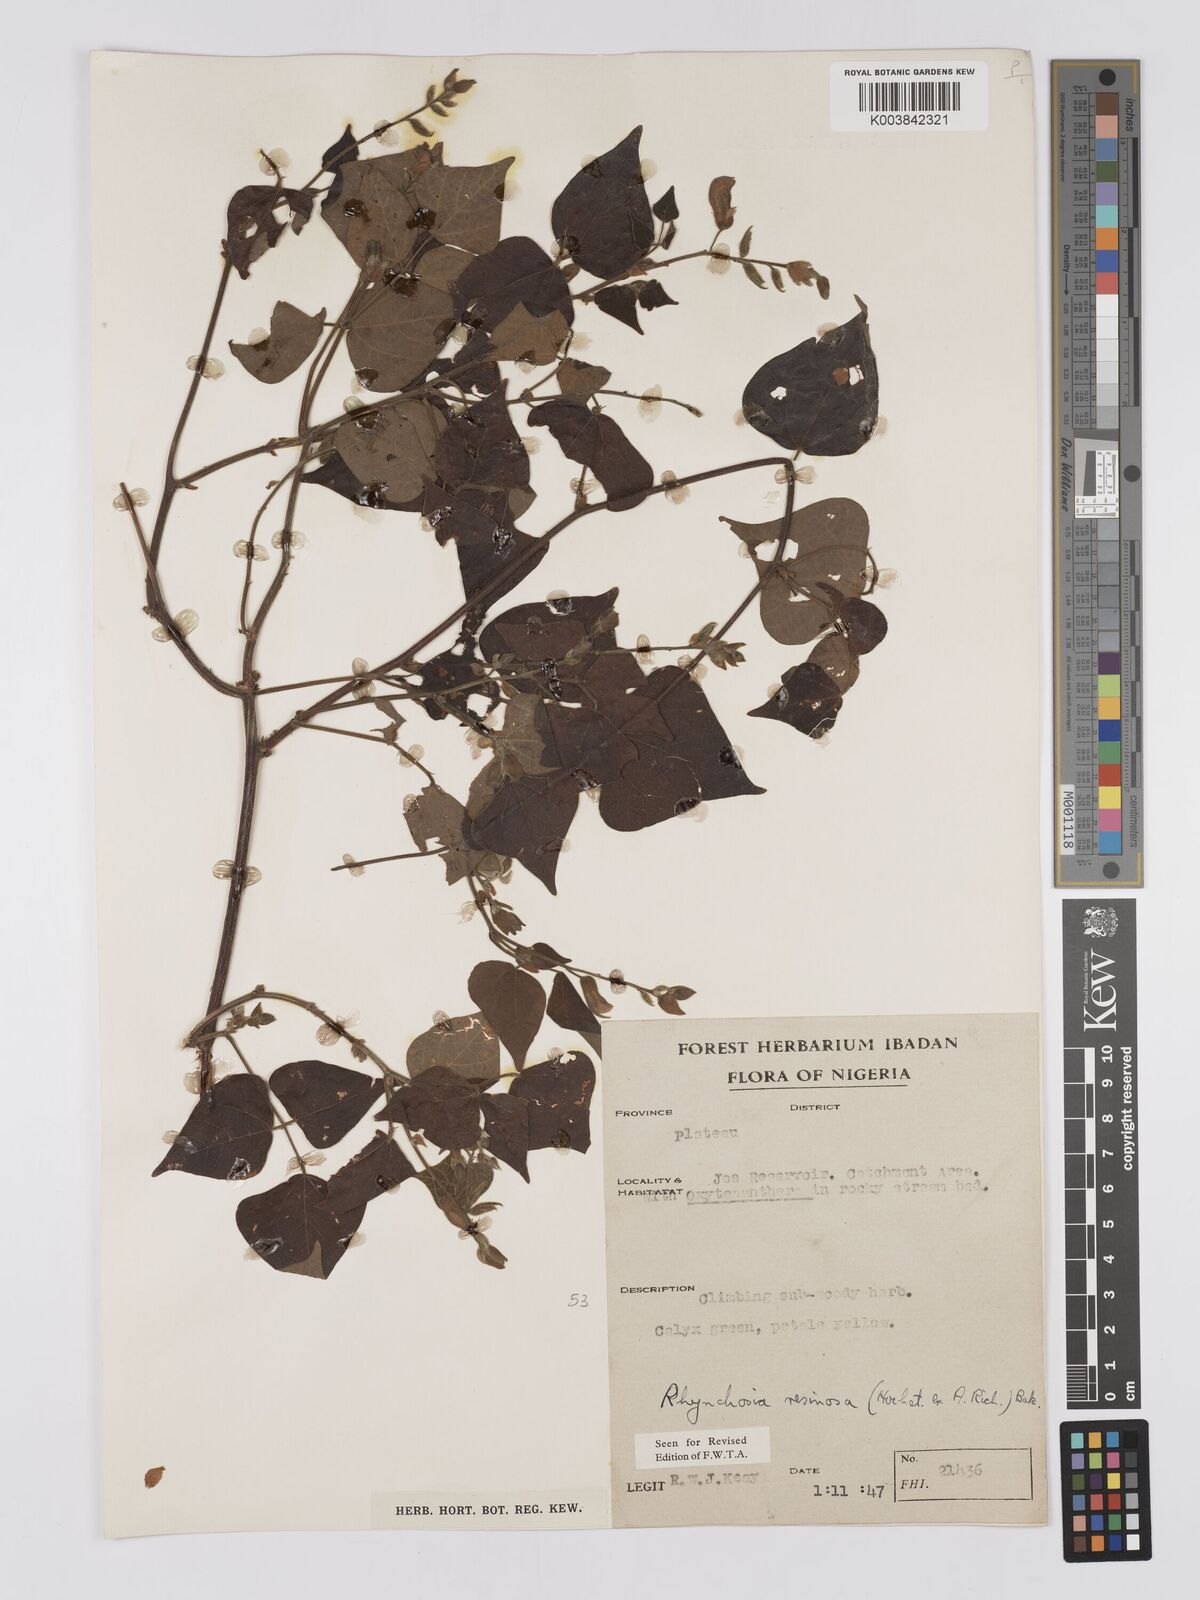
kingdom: Plantae
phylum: Tracheophyta
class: Magnoliopsida
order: Fabales
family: Fabaceae
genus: Rhynchosia
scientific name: Rhynchosia resinosa
